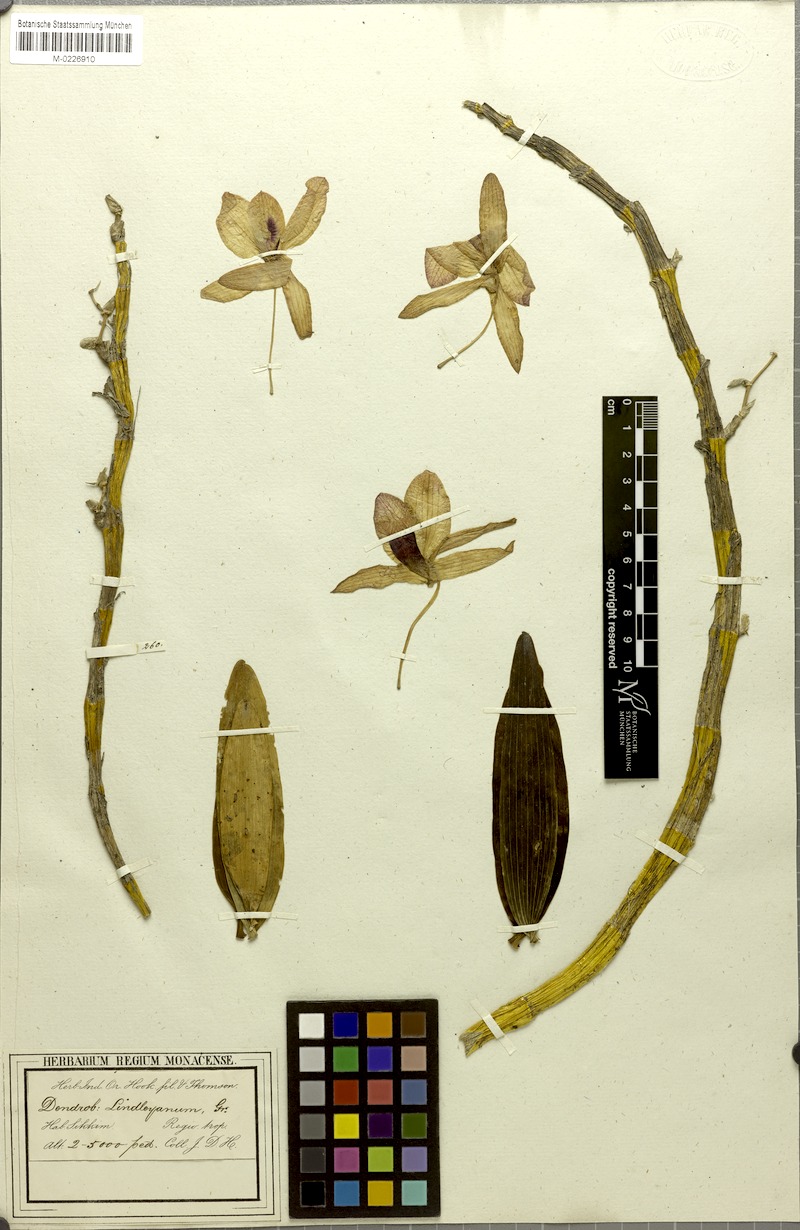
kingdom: Plantae
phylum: Tracheophyta
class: Liliopsida
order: Asparagales
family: Orchidaceae
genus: Dendrobium
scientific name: Dendrobium nobile
